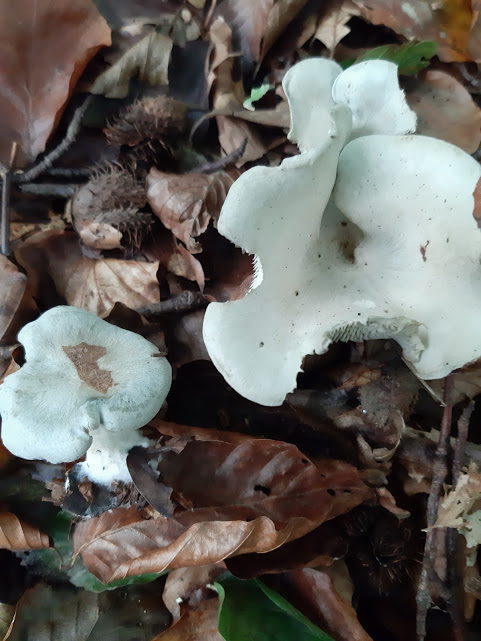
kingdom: Fungi
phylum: Basidiomycota
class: Agaricomycetes
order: Agaricales
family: Tricholomataceae
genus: Clitocybe
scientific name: Clitocybe odora
